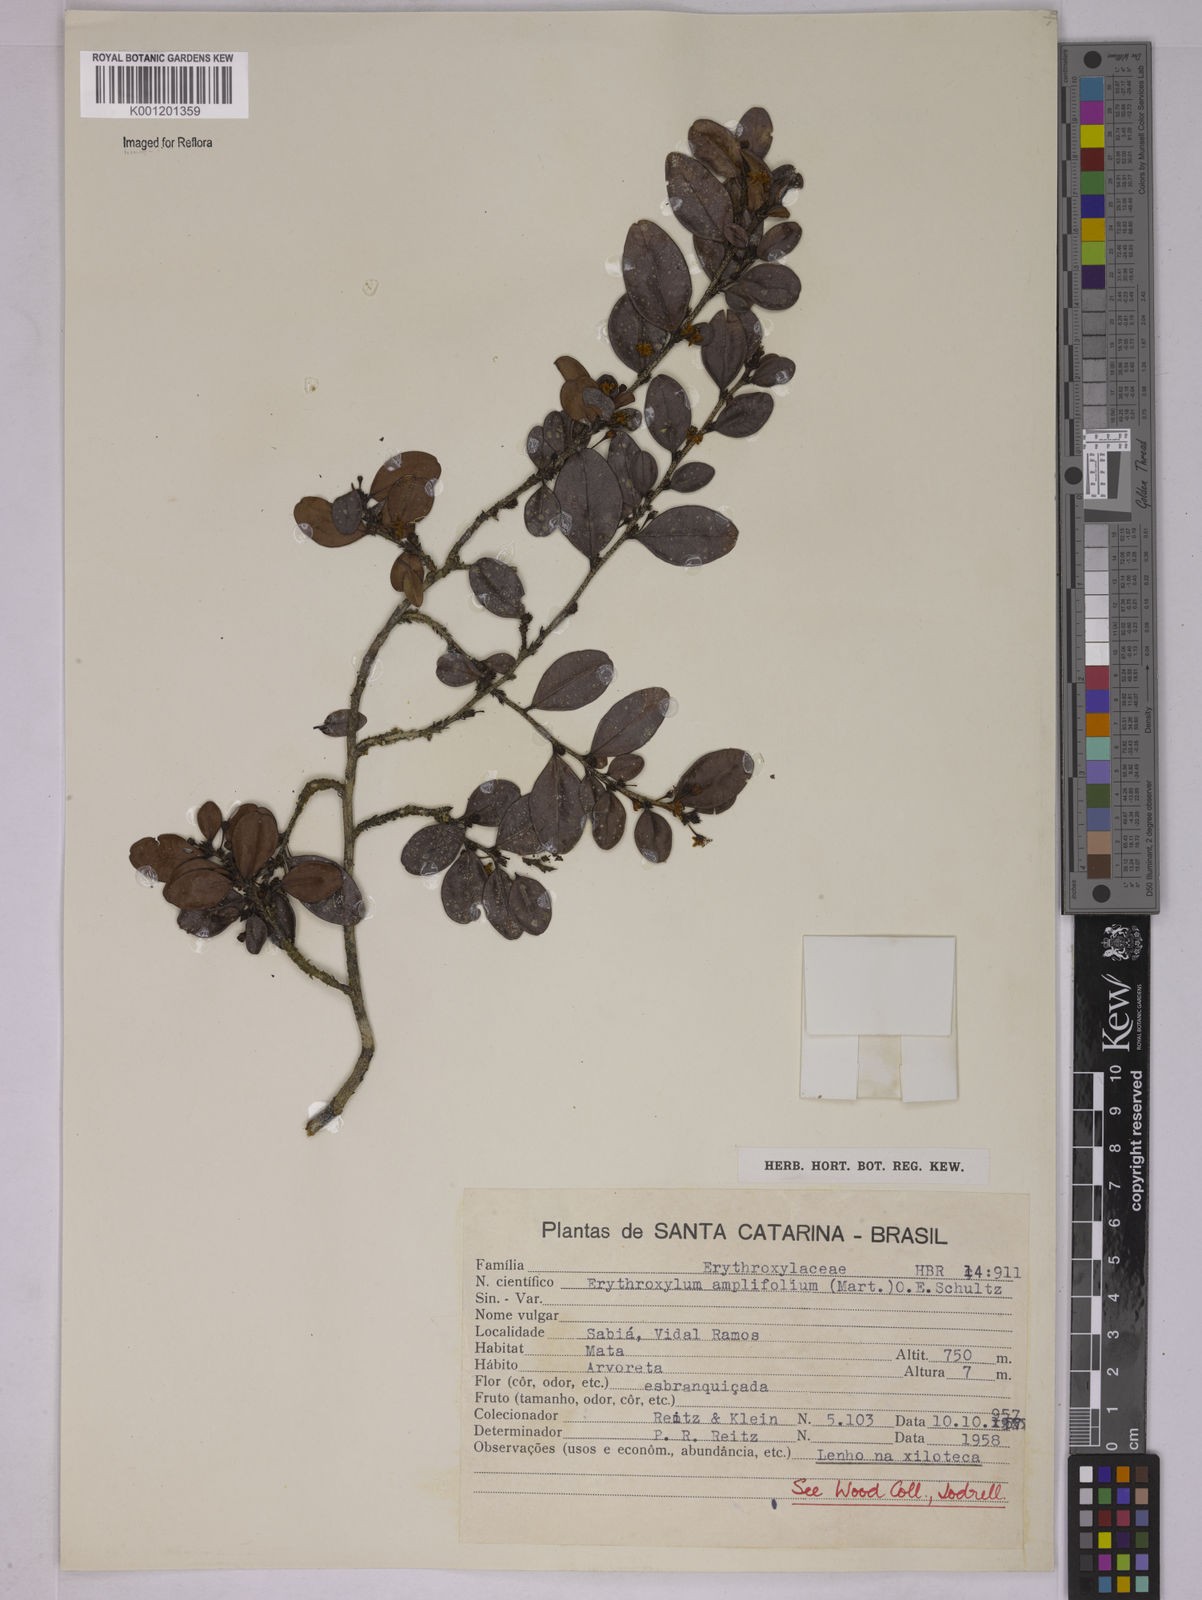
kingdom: Plantae
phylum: Tracheophyta
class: Magnoliopsida
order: Malpighiales
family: Erythroxylaceae
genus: Erythroxylum
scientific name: Erythroxylum
